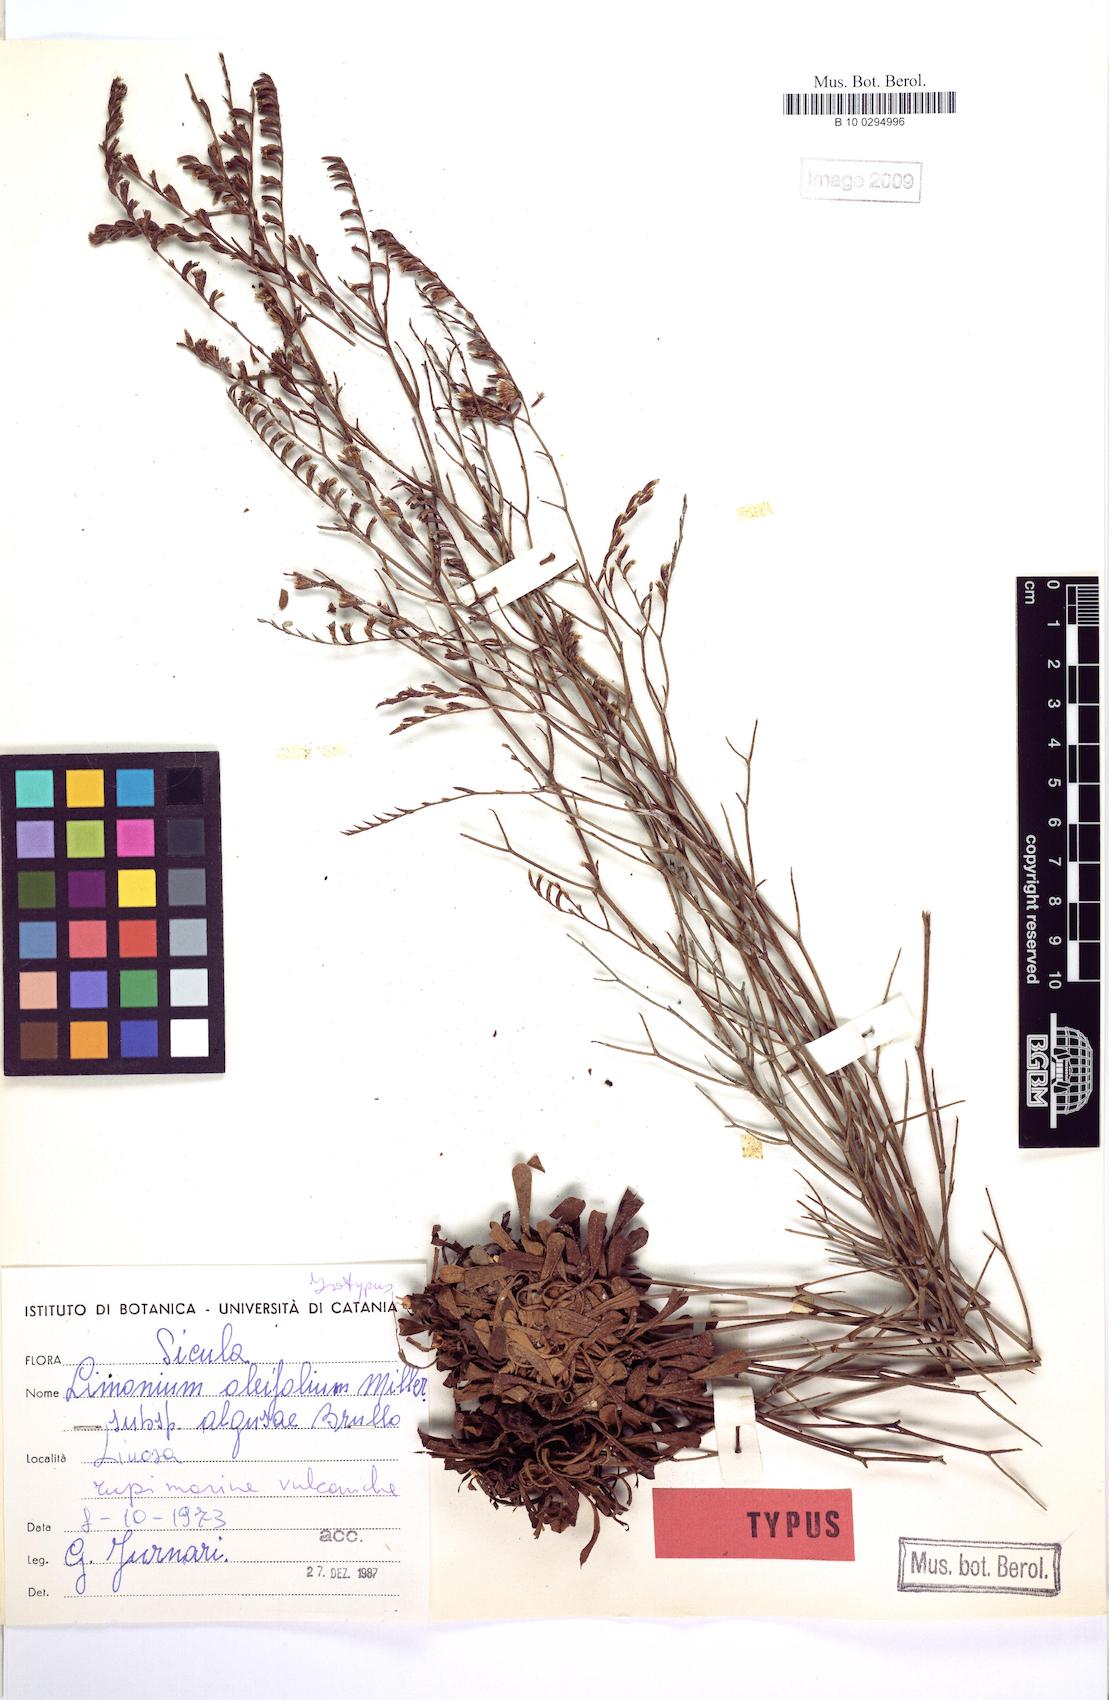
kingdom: Plantae
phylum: Tracheophyta
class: Magnoliopsida
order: Caryophyllales
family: Plumbaginaceae
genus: Limonium
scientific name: Limonium algusae
